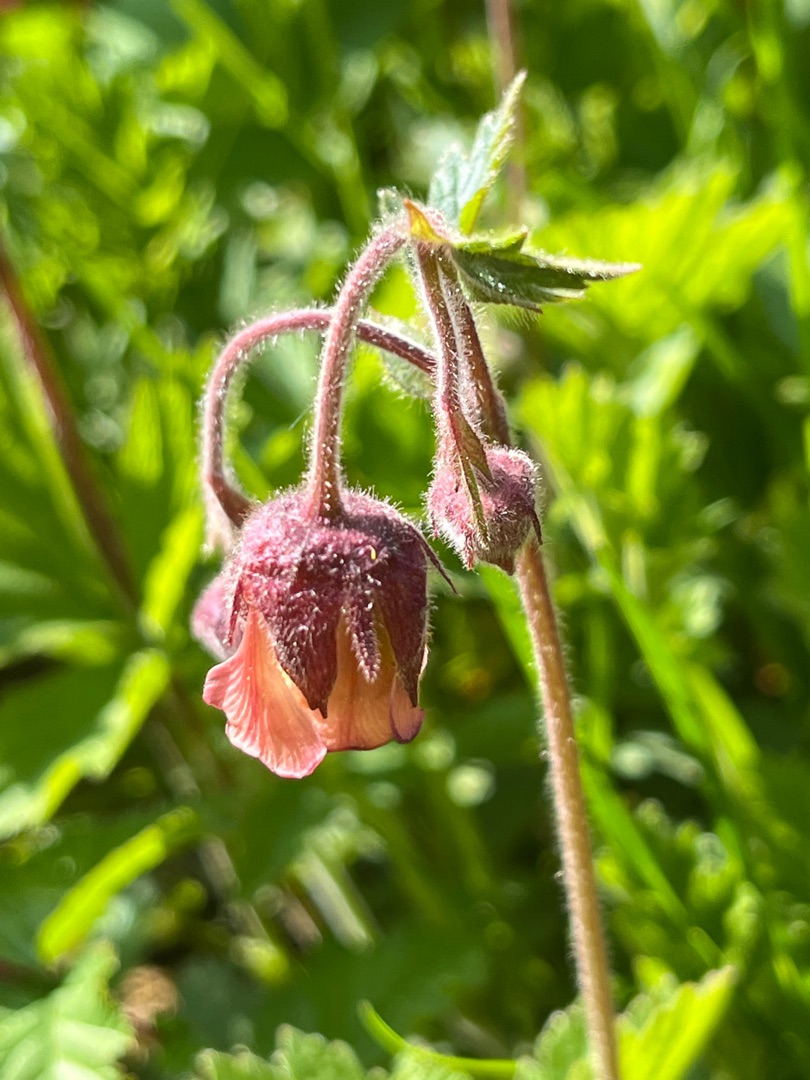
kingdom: Plantae
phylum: Tracheophyta
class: Magnoliopsida
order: Rosales
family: Rosaceae
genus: Geum
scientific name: Geum rivale
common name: Eng-nellikerod
